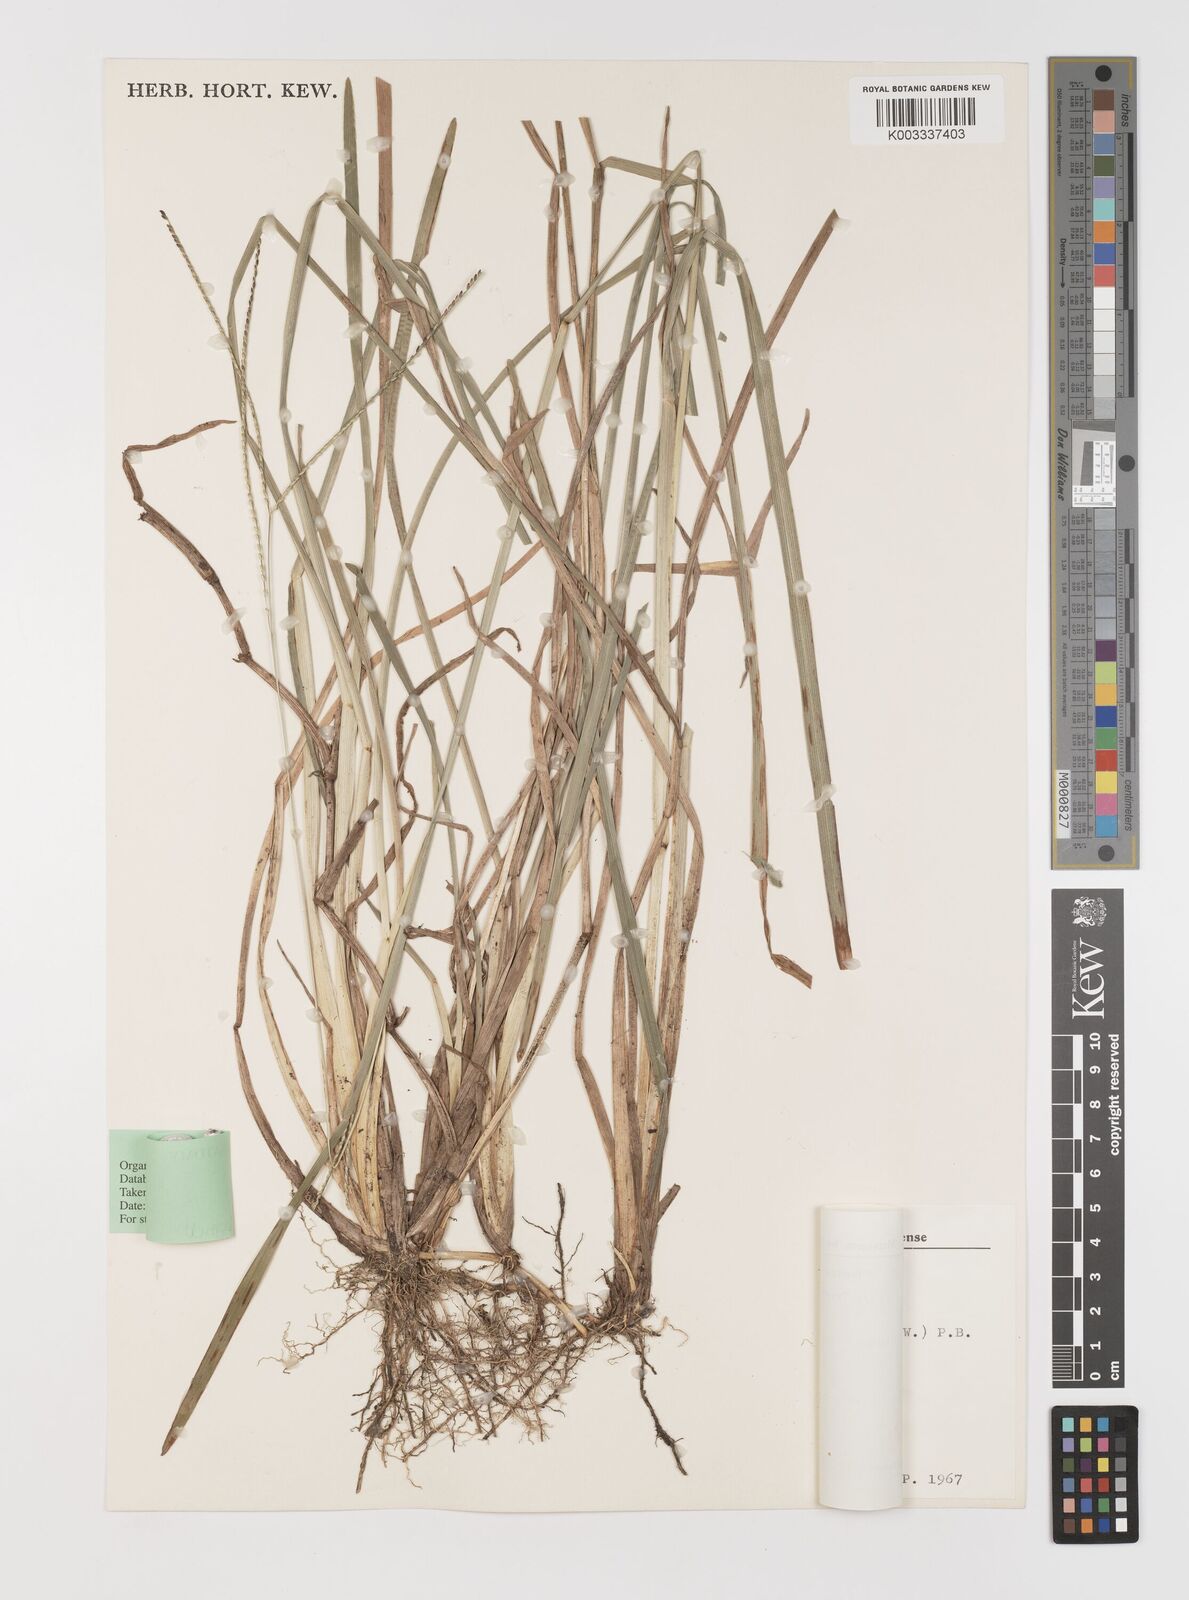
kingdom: Plantae
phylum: Tracheophyta
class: Liliopsida
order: Poales
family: Poaceae
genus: Axonopus
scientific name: Axonopus compressus
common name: American carpet grass
